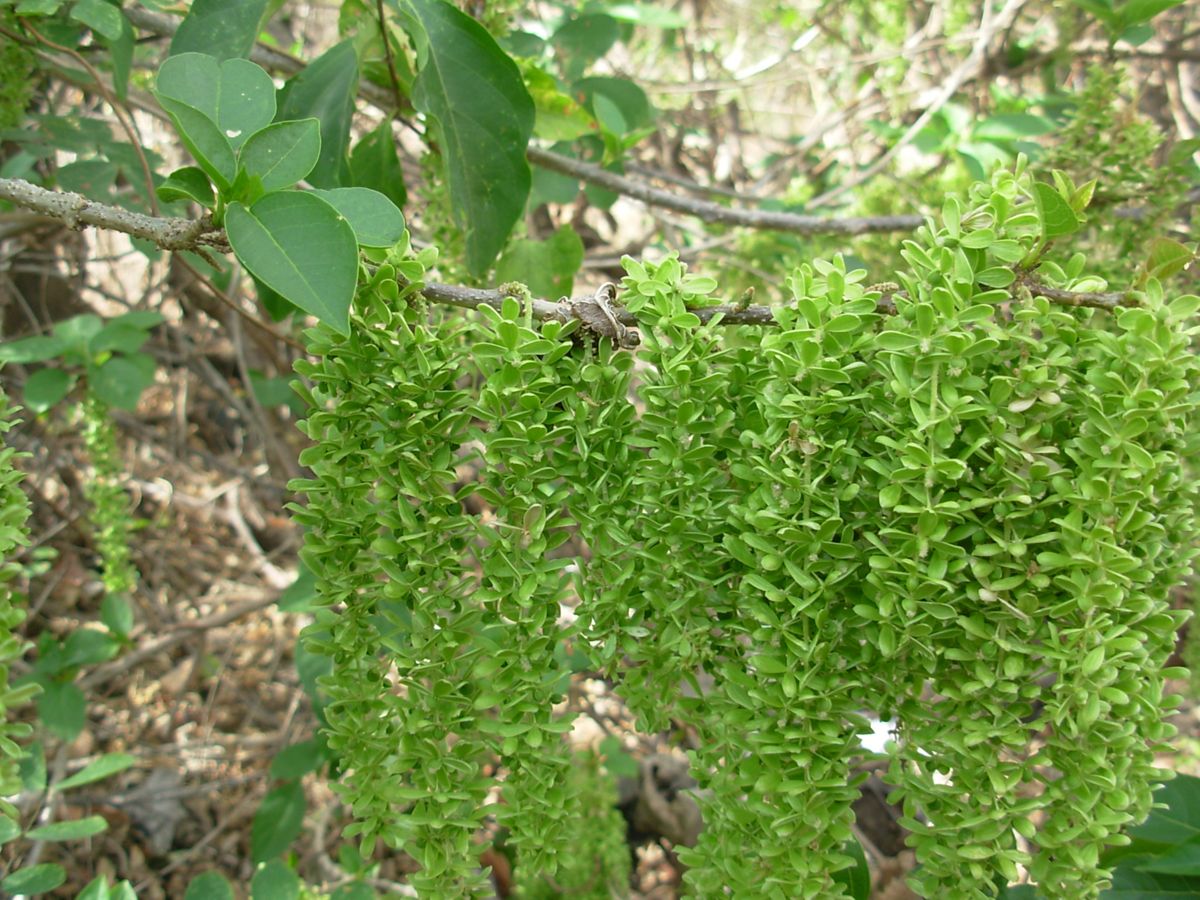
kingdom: Plantae
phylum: Tracheophyta
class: Magnoliopsida
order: Caryophyllales
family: Phytolaccaceae
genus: Ledenbergia
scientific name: Ledenbergia macrantha
